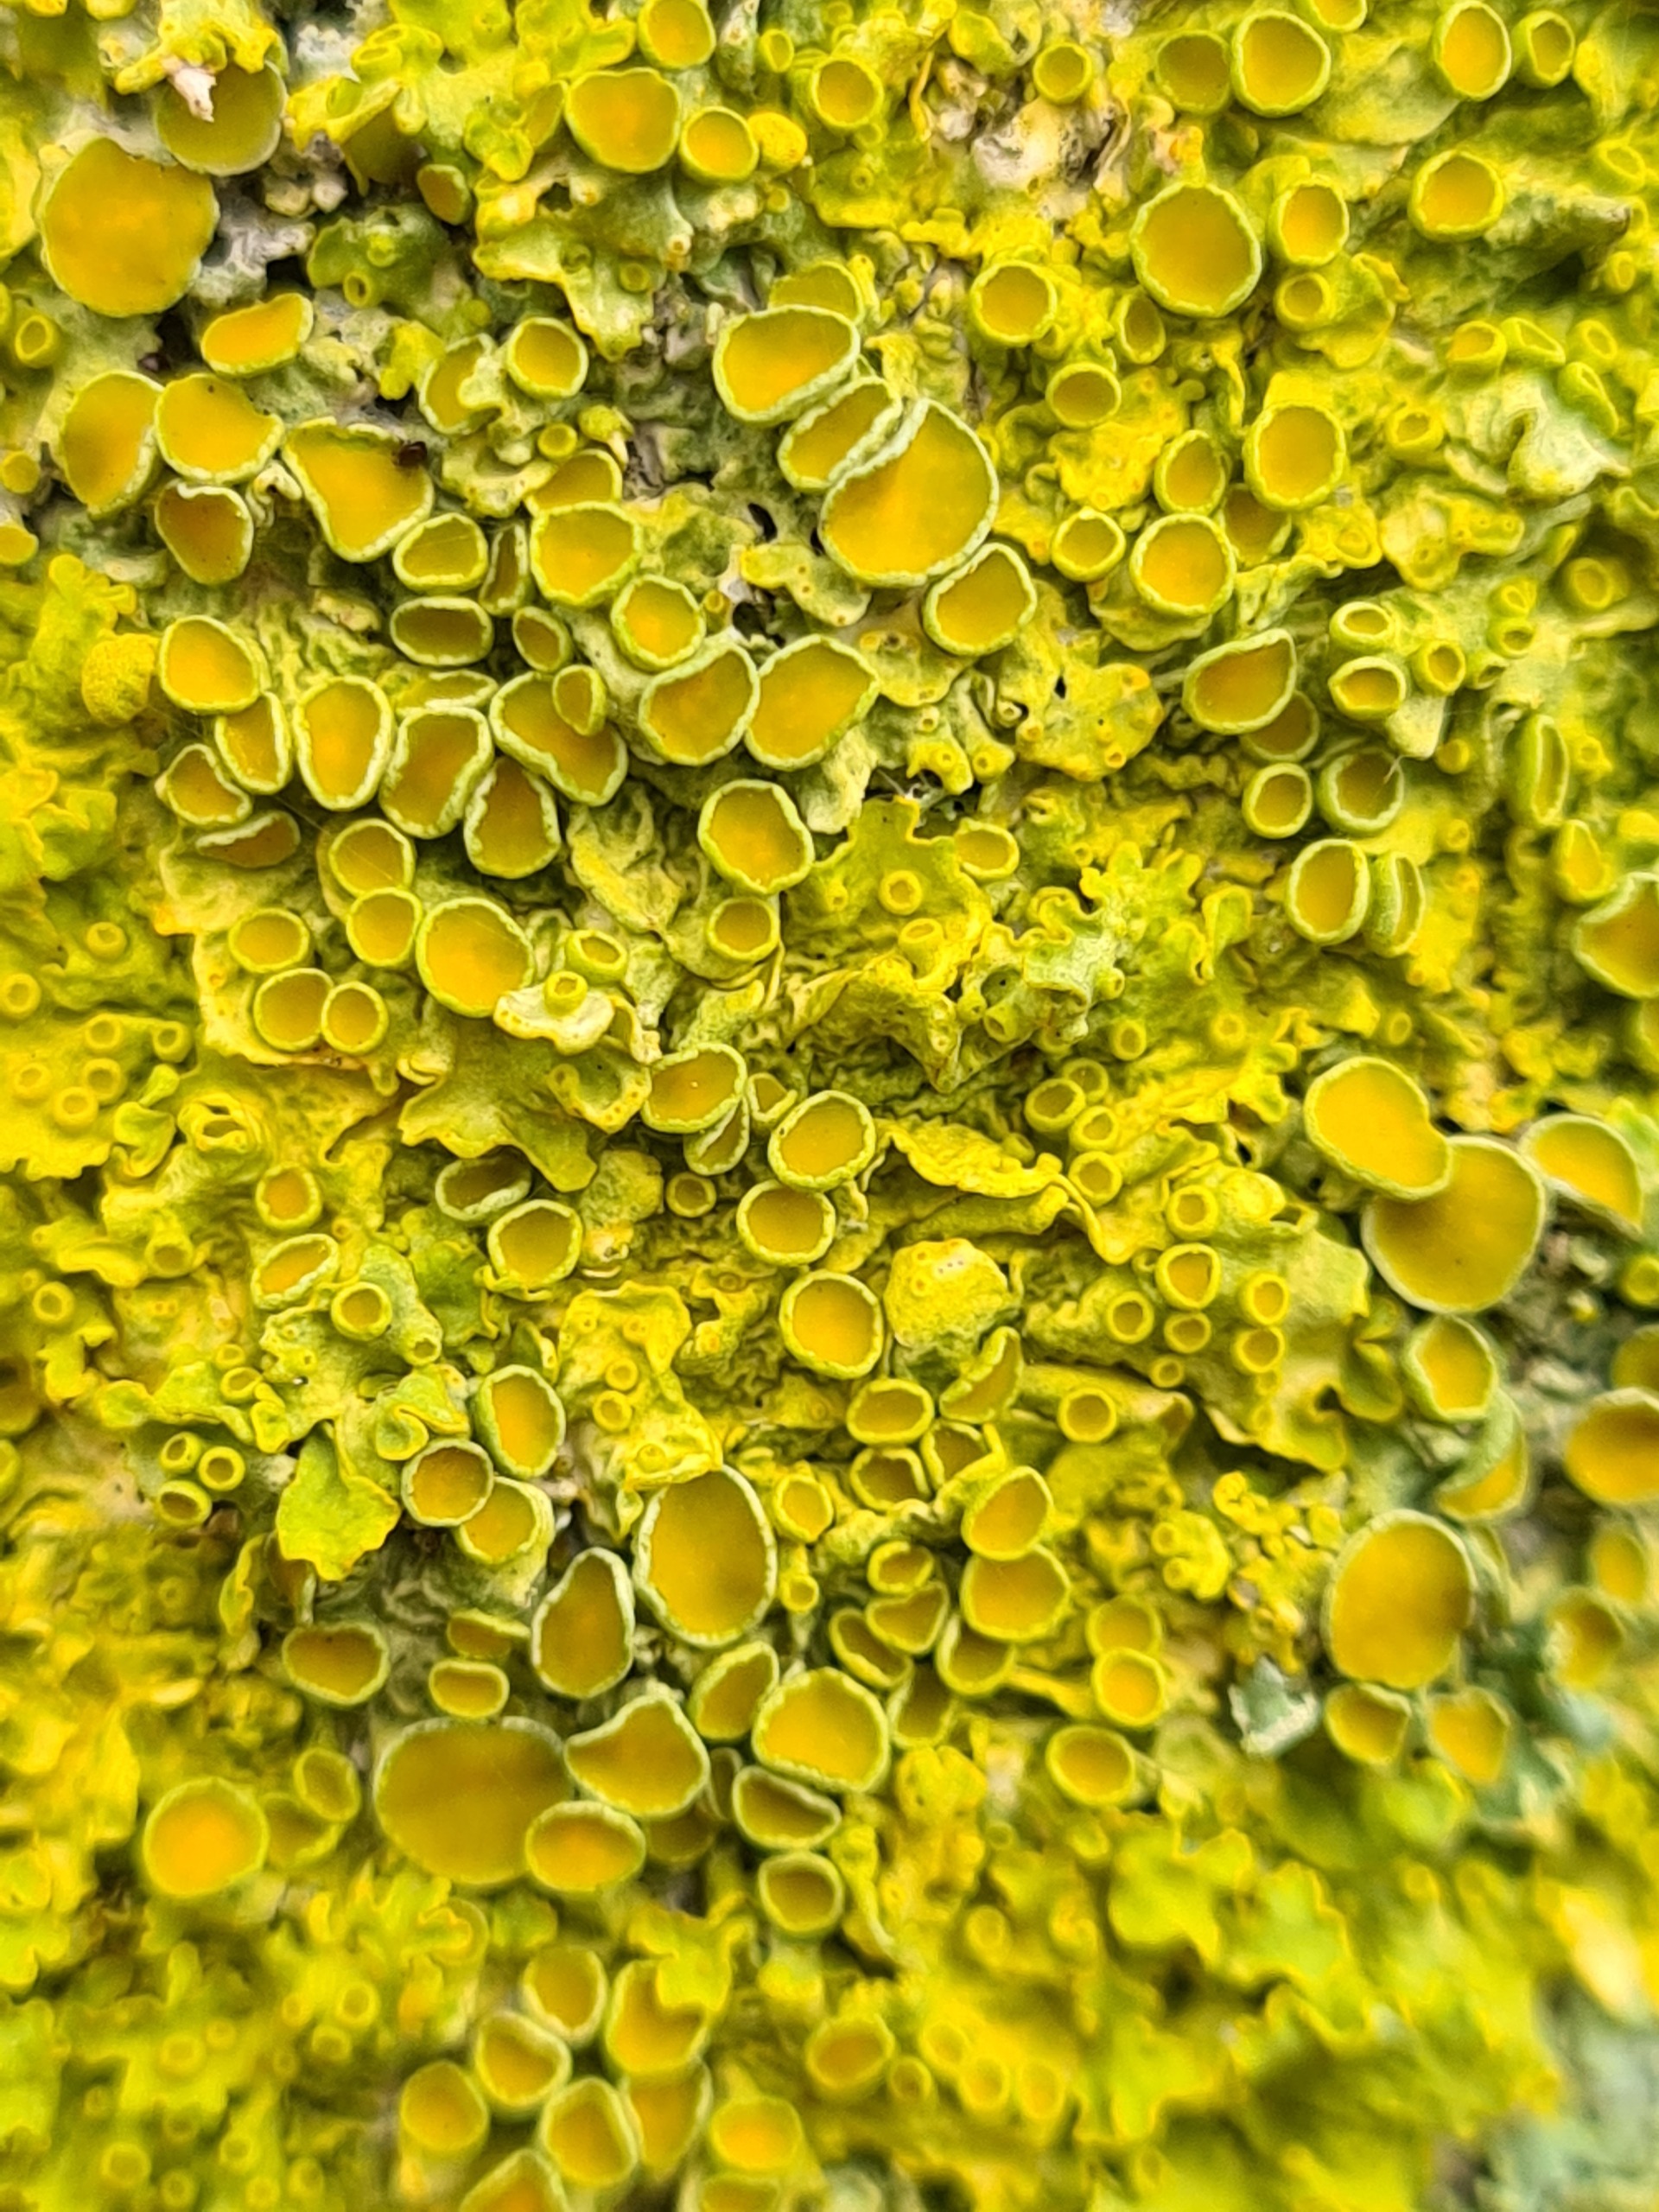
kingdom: Fungi
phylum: Ascomycota
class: Lecanoromycetes
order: Teloschistales
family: Teloschistaceae
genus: Xanthoria
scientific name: Xanthoria parietina
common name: Almindelig væggelav
